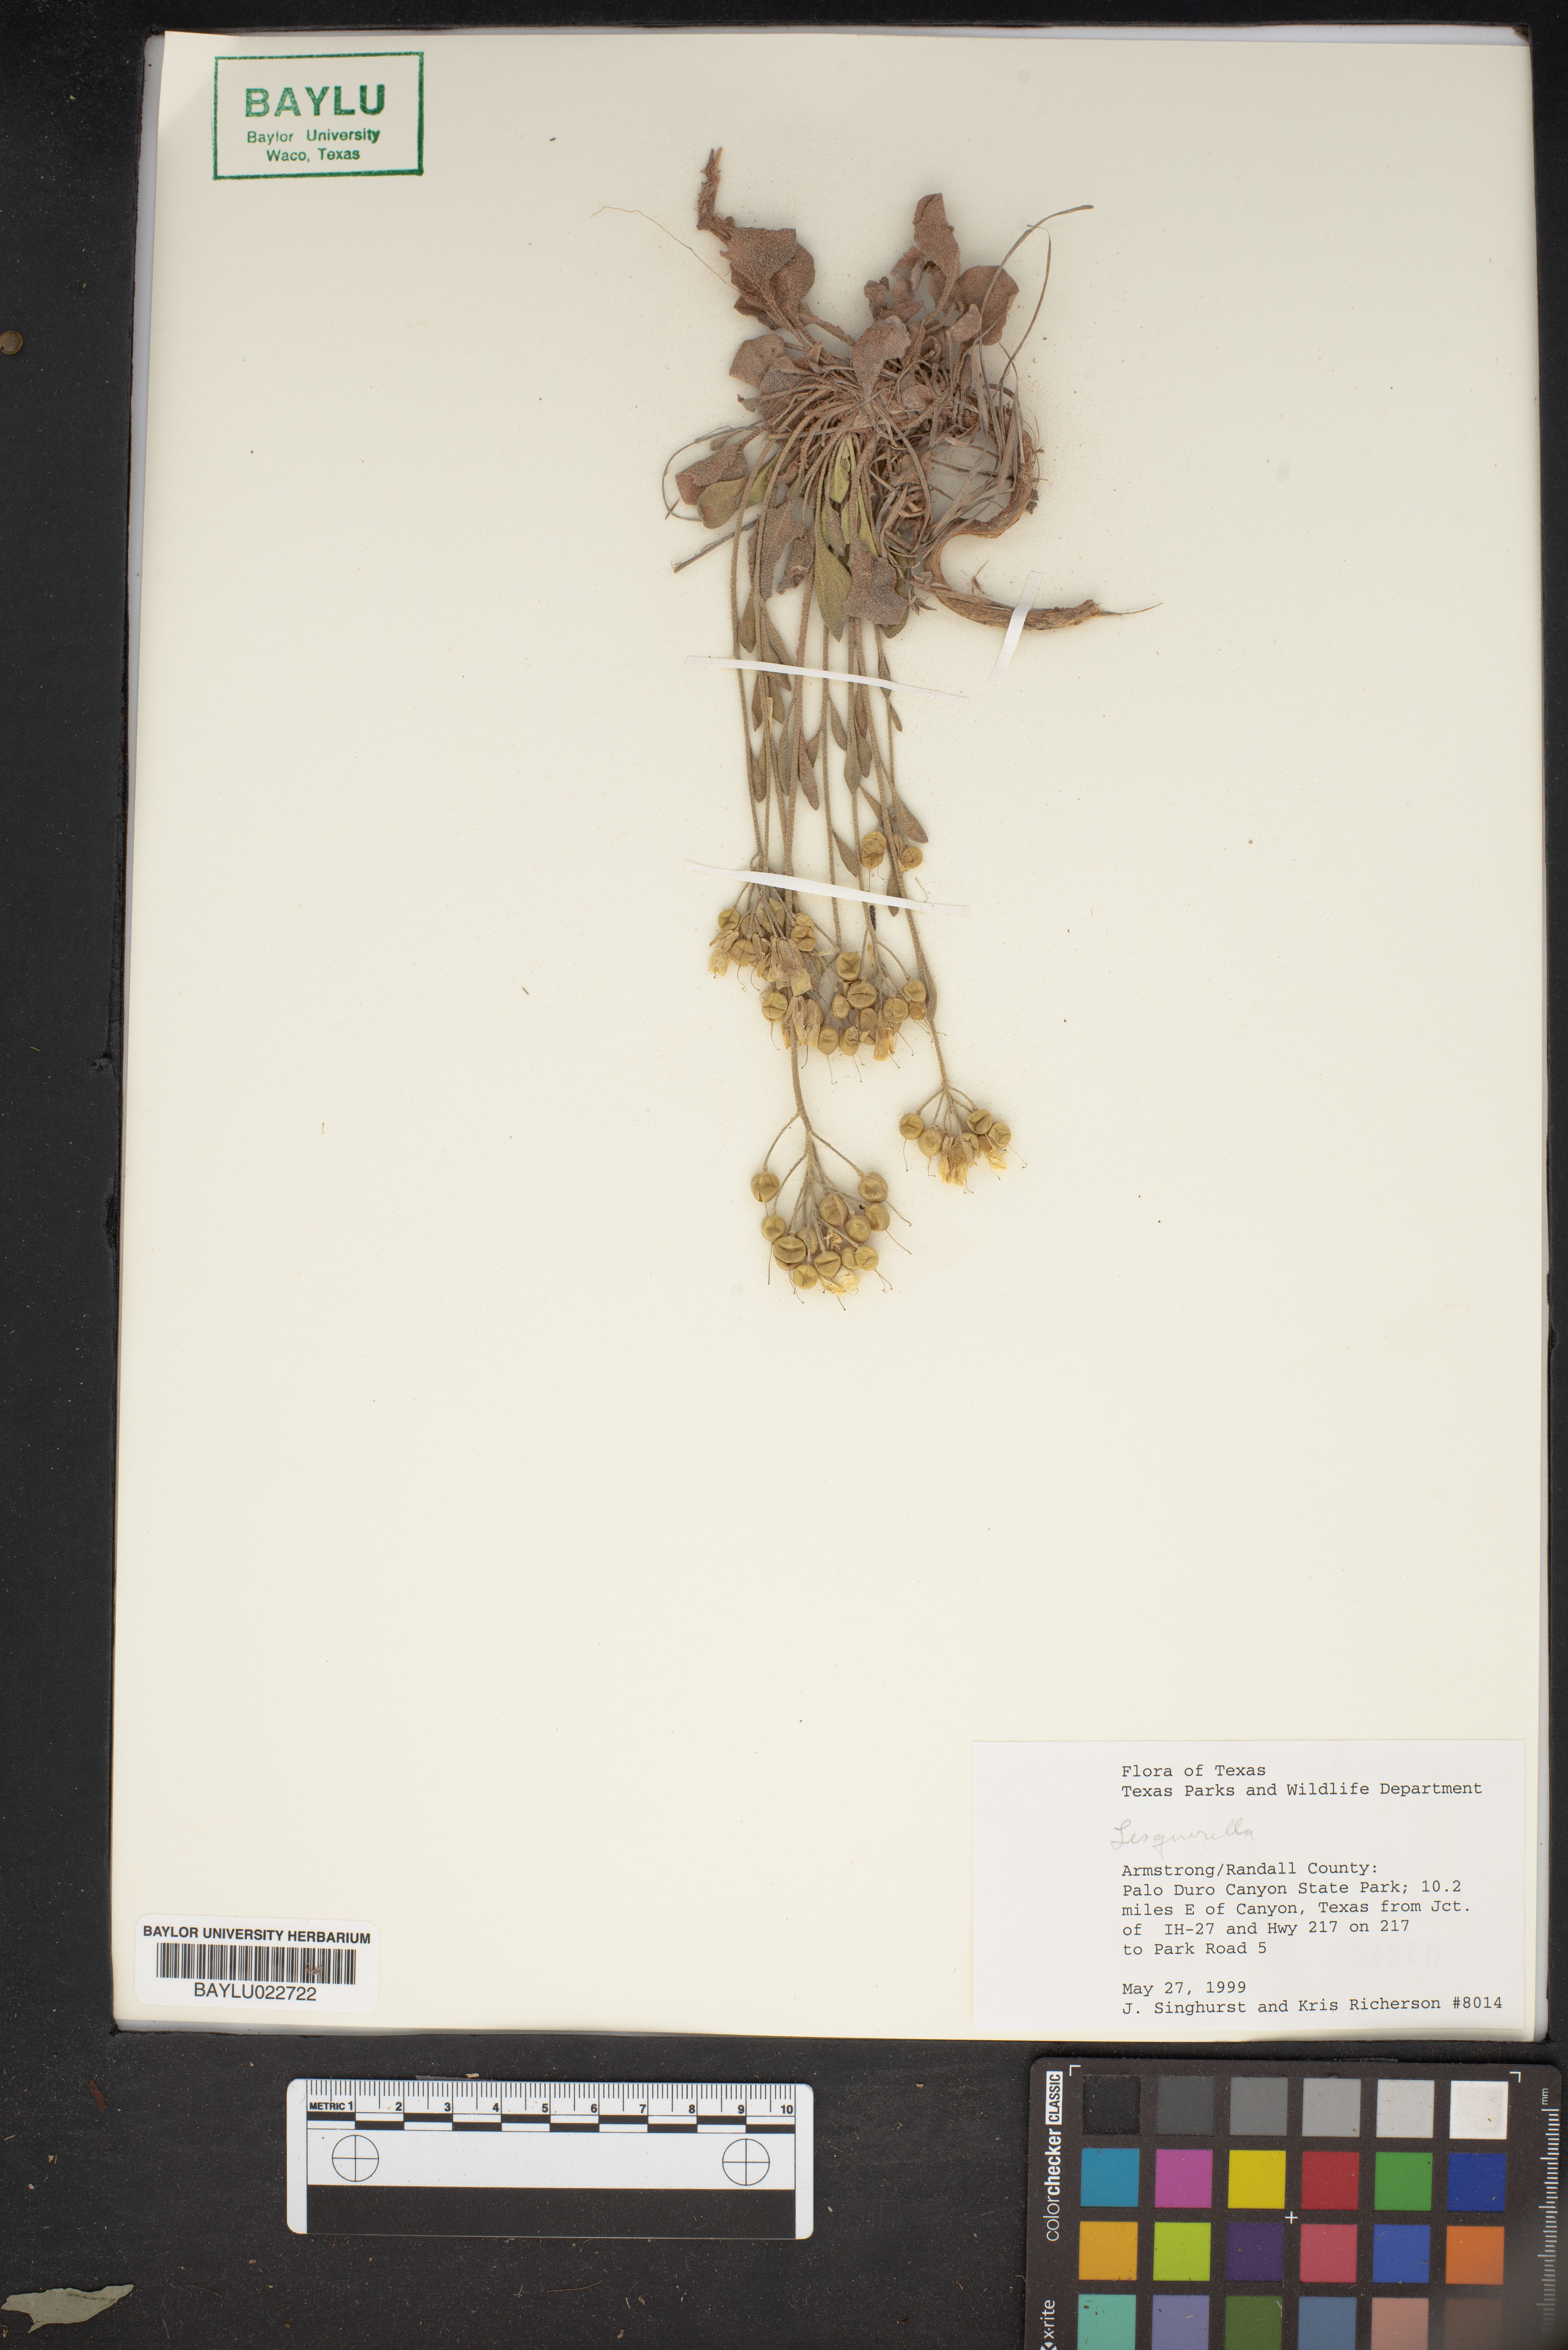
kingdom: Chromista
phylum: Cercozoa
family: Psammonobiotidae
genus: Lesquerella
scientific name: Lesquerella
